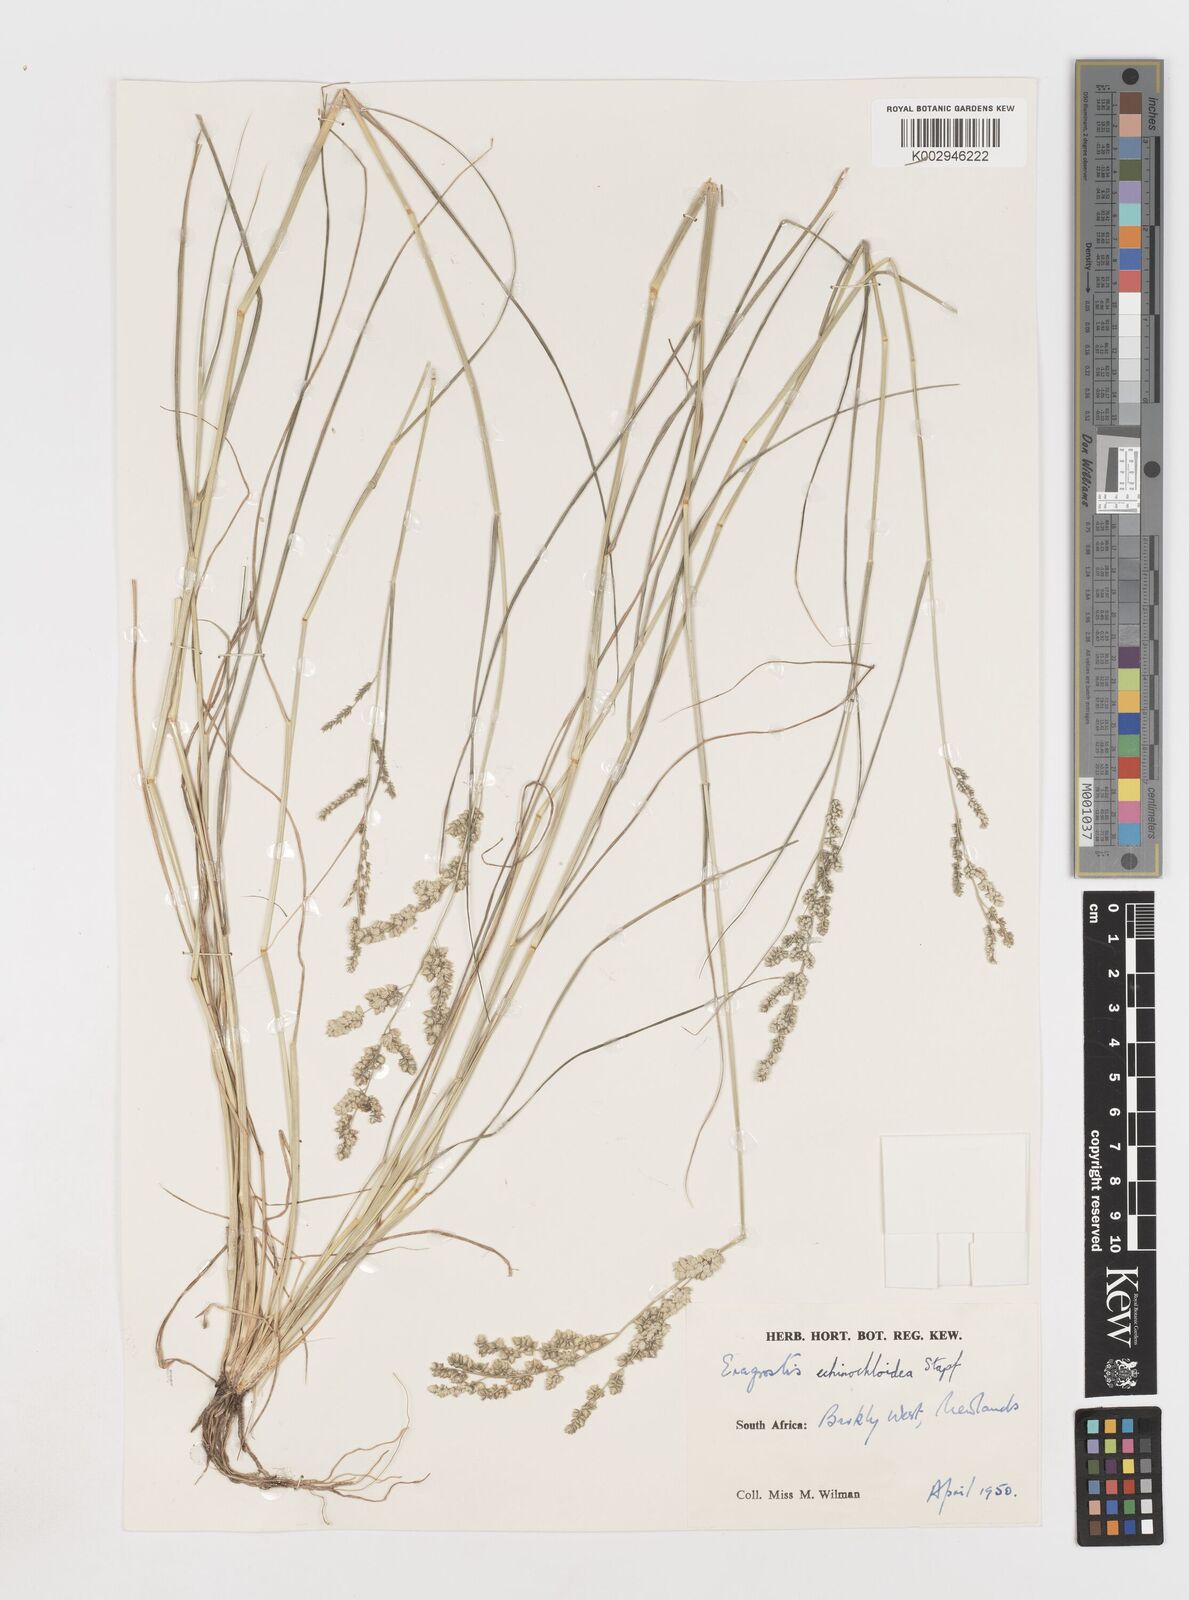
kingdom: Plantae
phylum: Tracheophyta
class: Liliopsida
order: Poales
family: Poaceae
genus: Eragrostis
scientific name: Eragrostis echinochloidea
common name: African lovegrass
